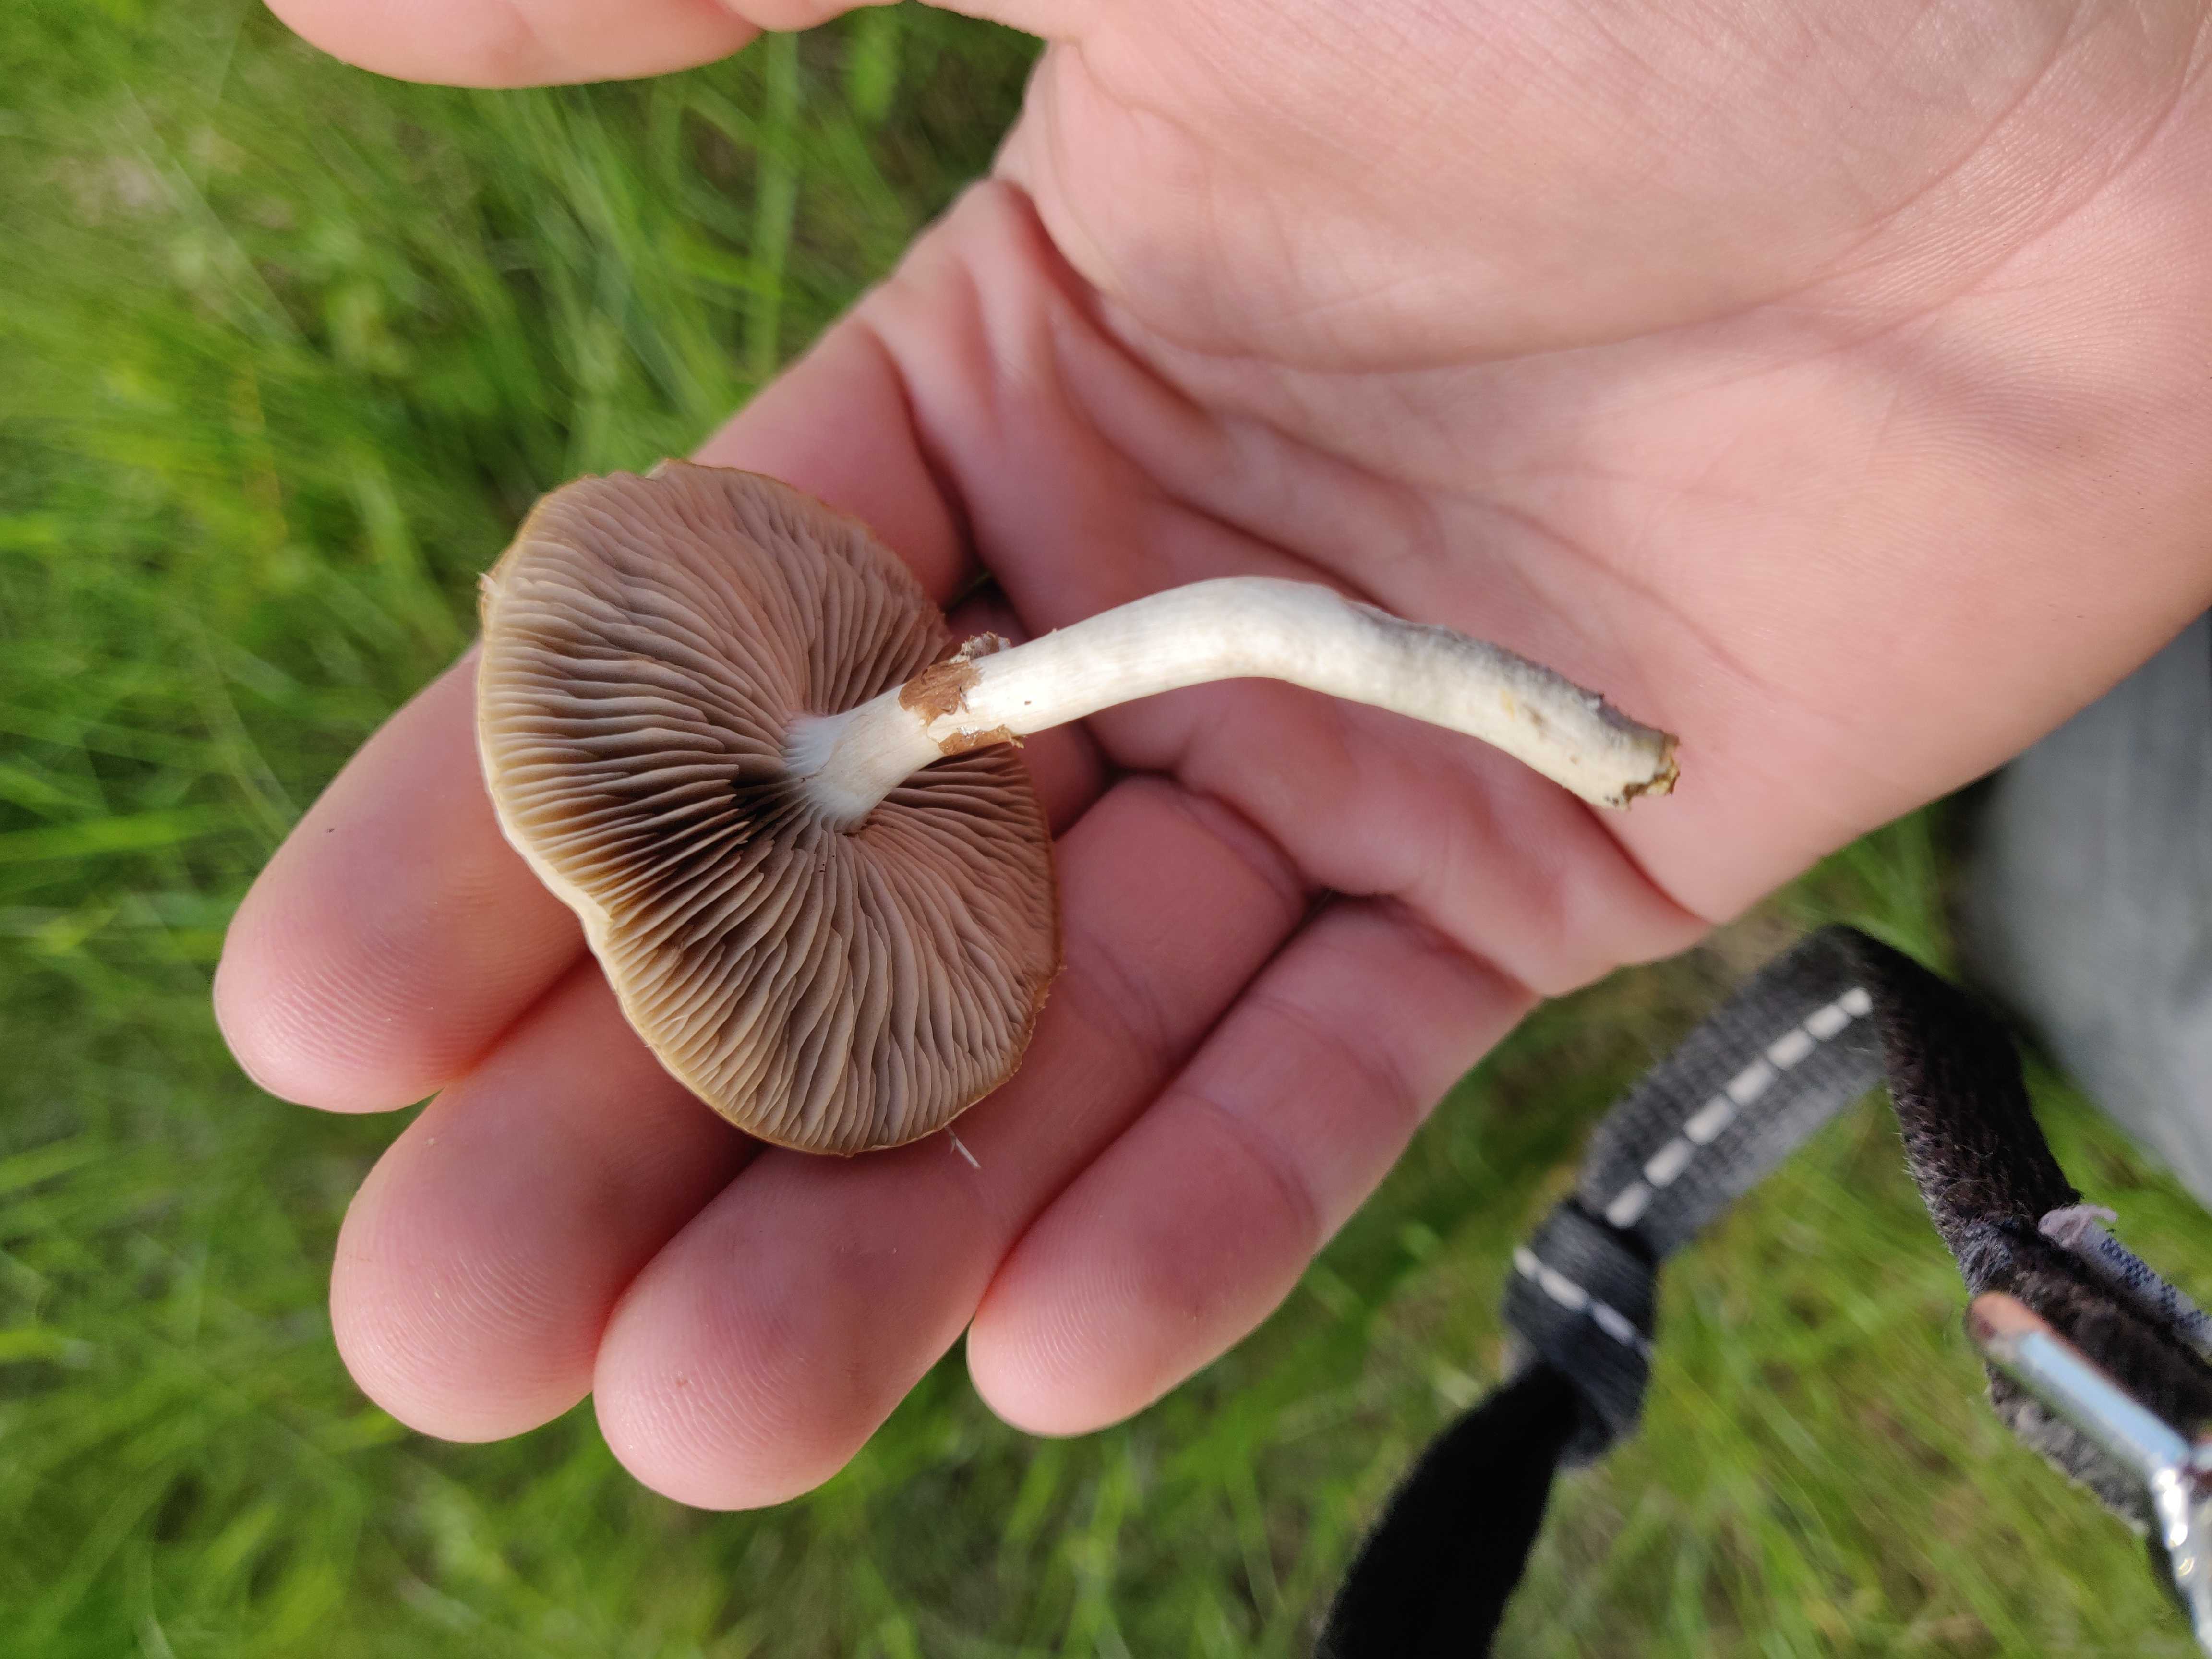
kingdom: Fungi
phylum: Basidiomycota
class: Agaricomycetes
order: Agaricales
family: Strophariaceae
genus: Agrocybe
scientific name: Agrocybe praecox
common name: tidlig agerhat
